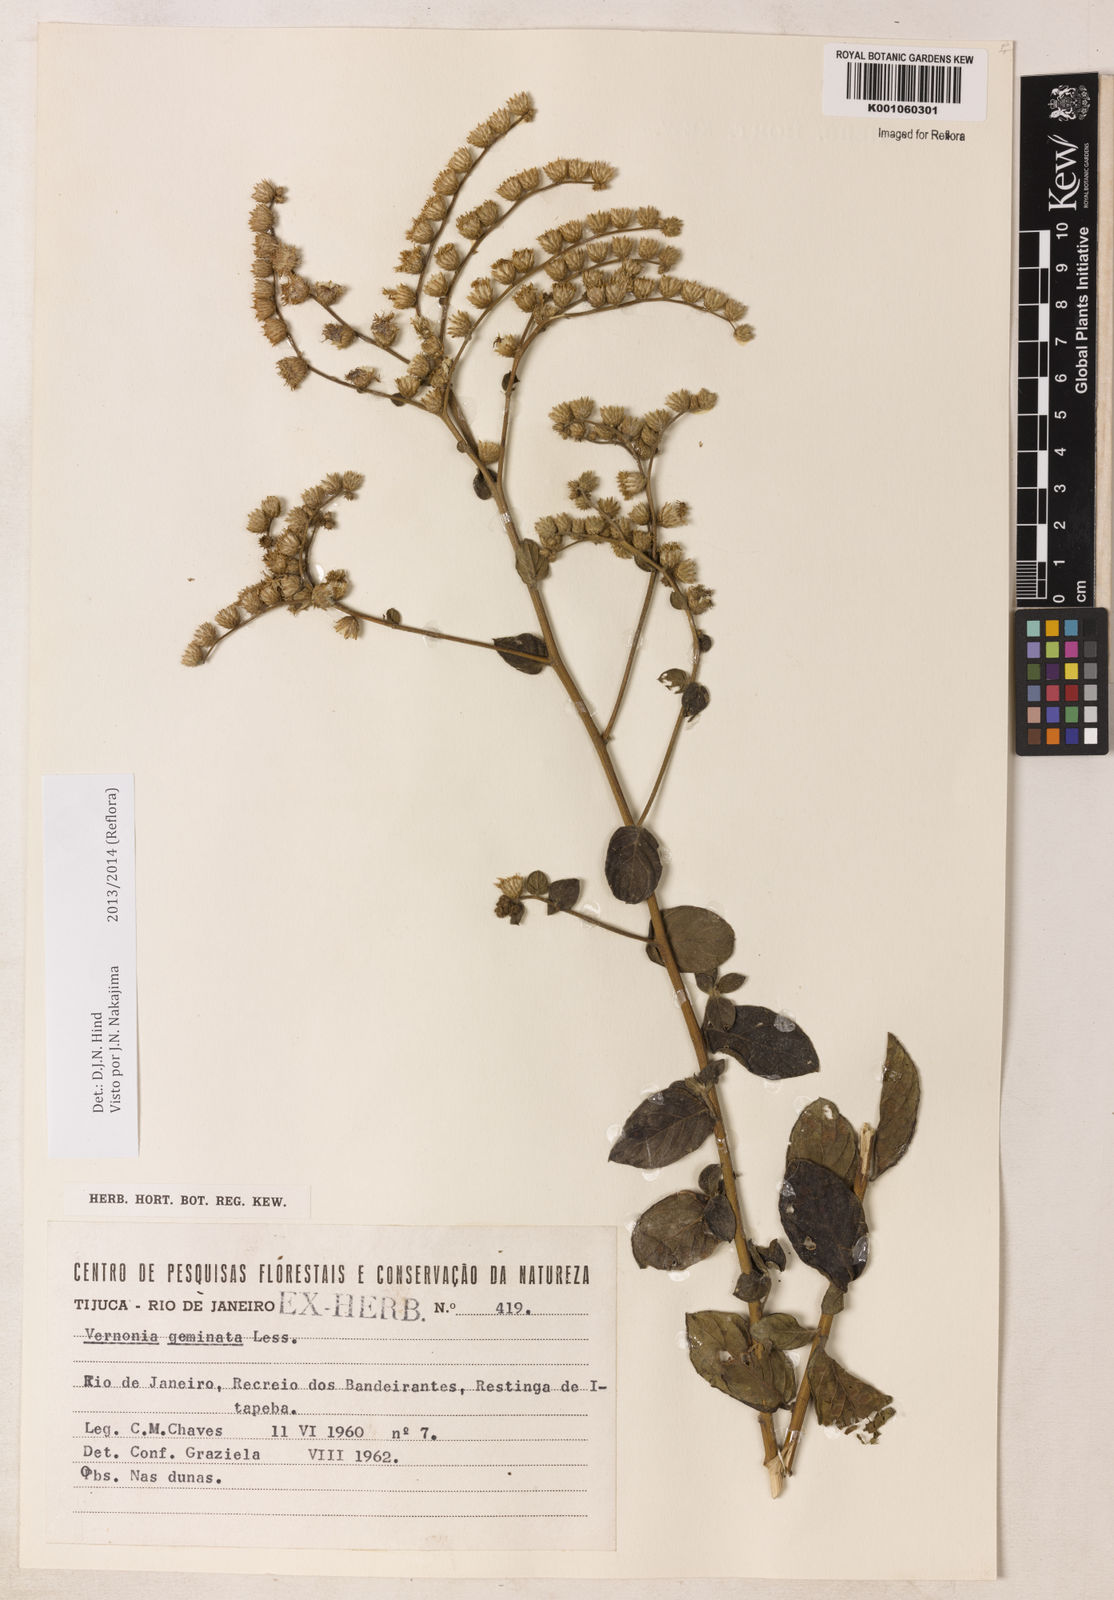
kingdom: Plantae
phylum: Tracheophyta
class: Magnoliopsida
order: Asterales
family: Asteraceae
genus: Lepidaploa
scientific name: Lepidaploa canescens
